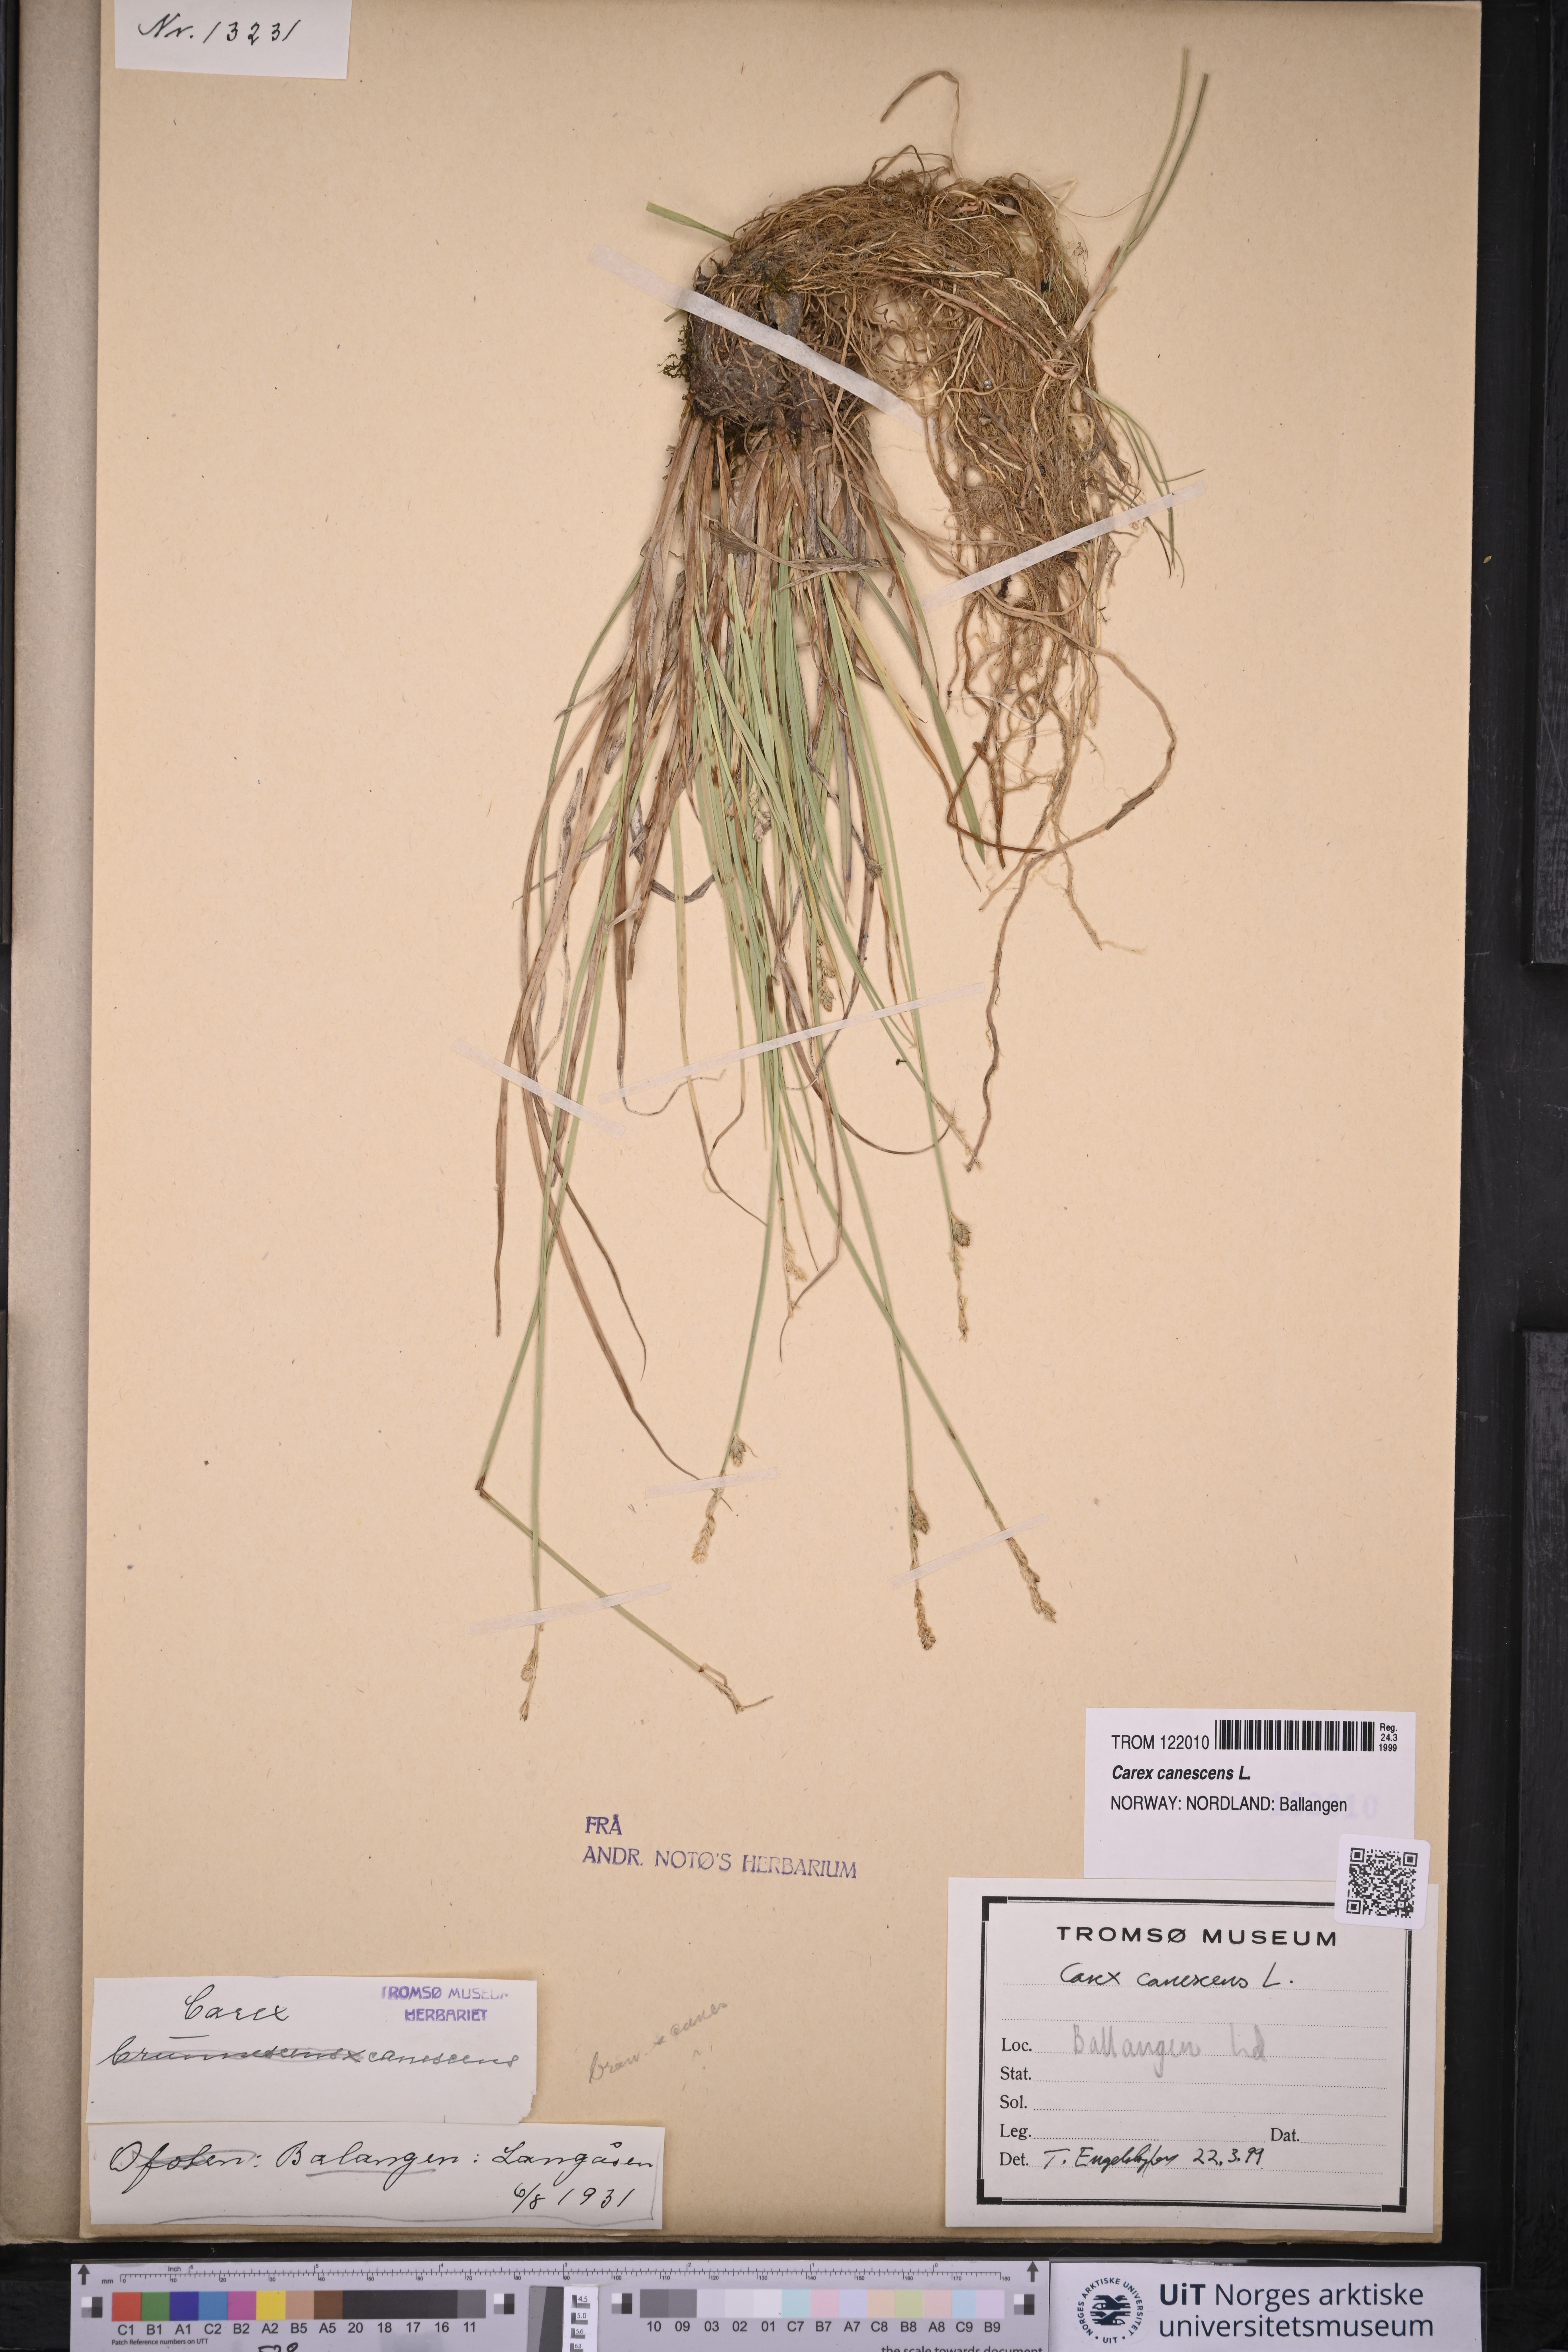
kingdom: Plantae
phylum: Tracheophyta
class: Liliopsida
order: Poales
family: Cyperaceae
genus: Carex
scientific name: Carex canescens
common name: White sedge
